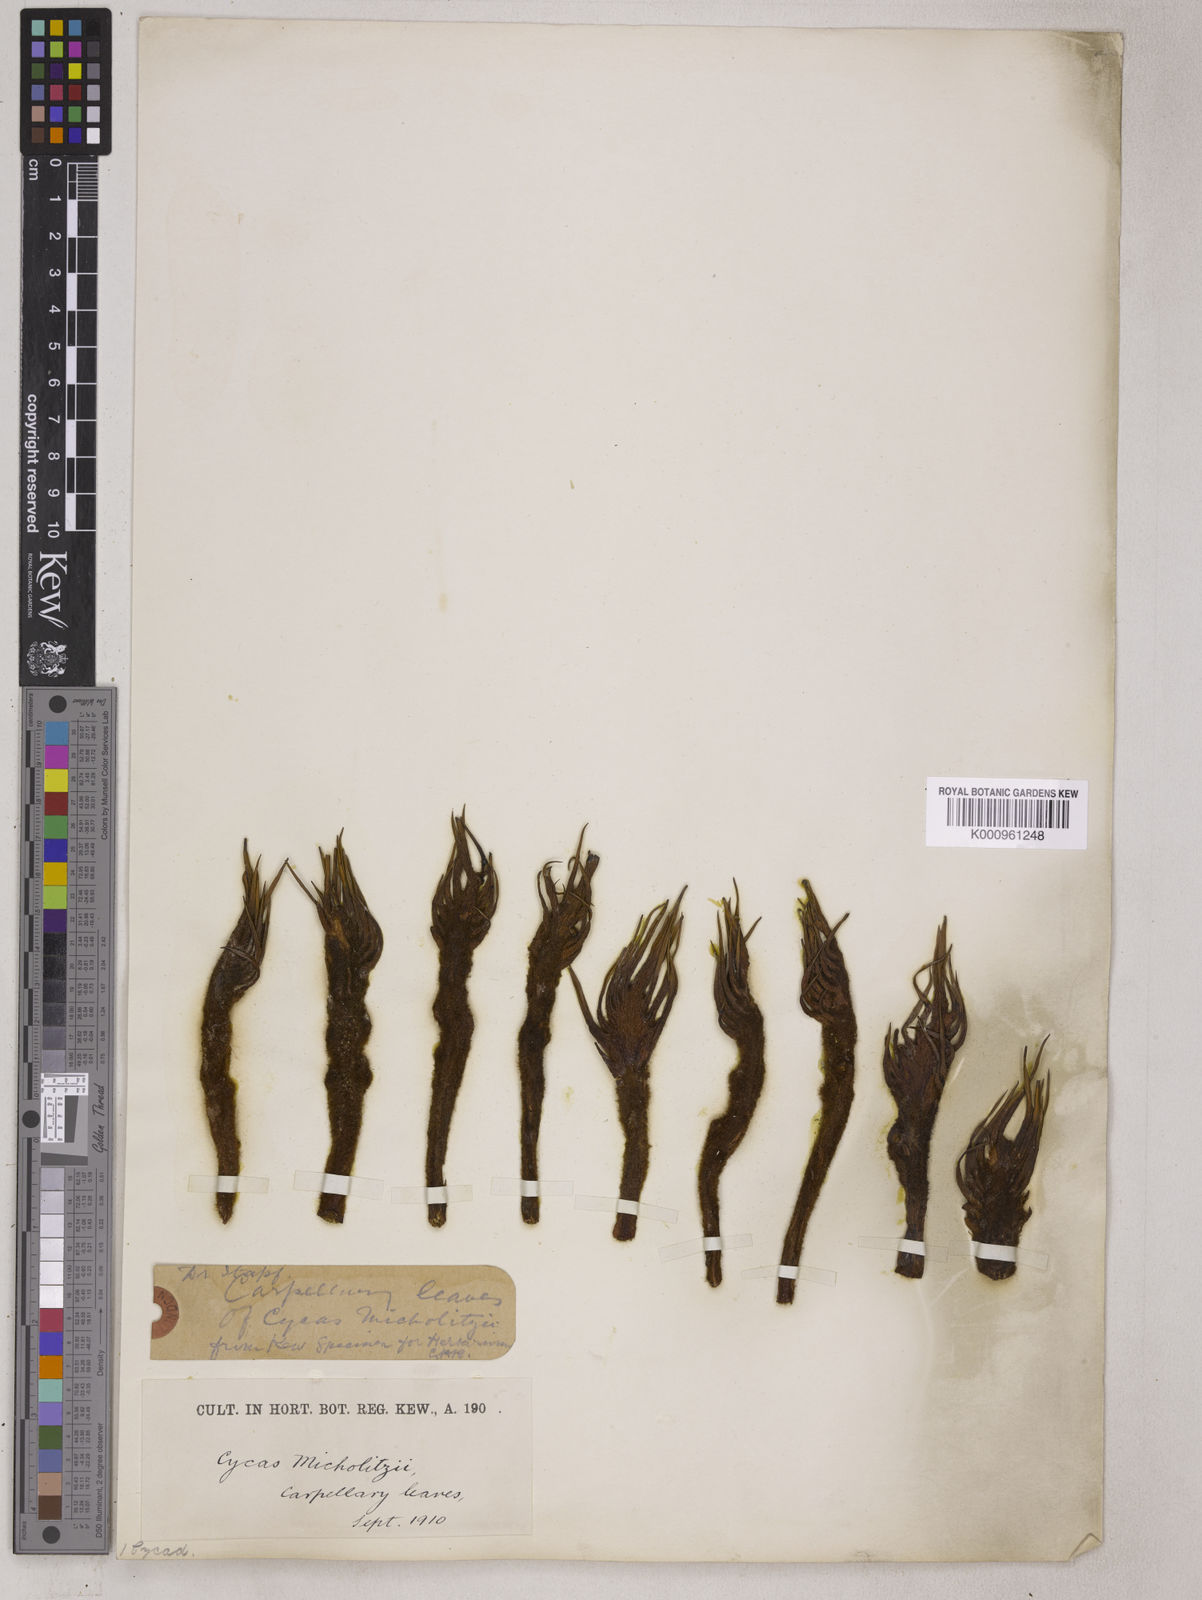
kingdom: Plantae
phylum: Tracheophyta
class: Cycadopsida
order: Cycadales
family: Cycadaceae
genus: Cycas
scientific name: Cycas micholitzii
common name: Fork-leaf cycas
